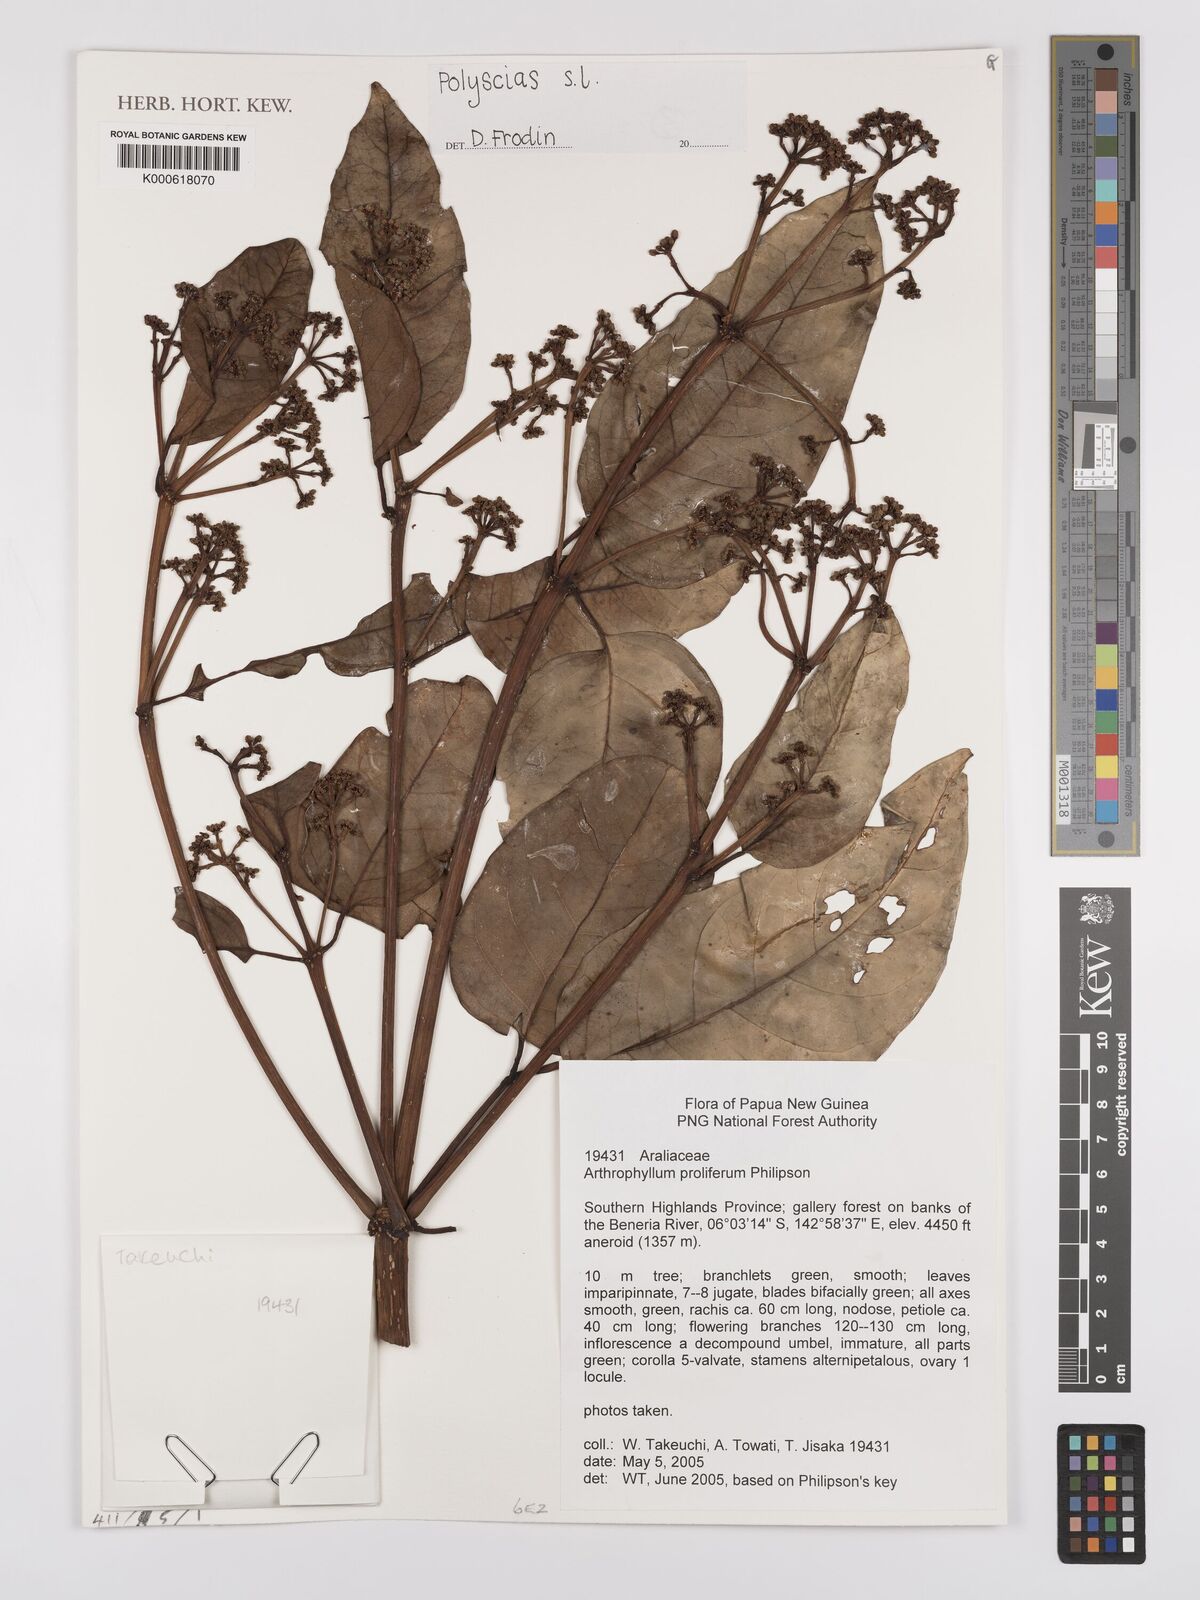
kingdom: Plantae
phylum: Tracheophyta
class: Magnoliopsida
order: Apiales
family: Araliaceae
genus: Polyscias
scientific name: Polyscias
